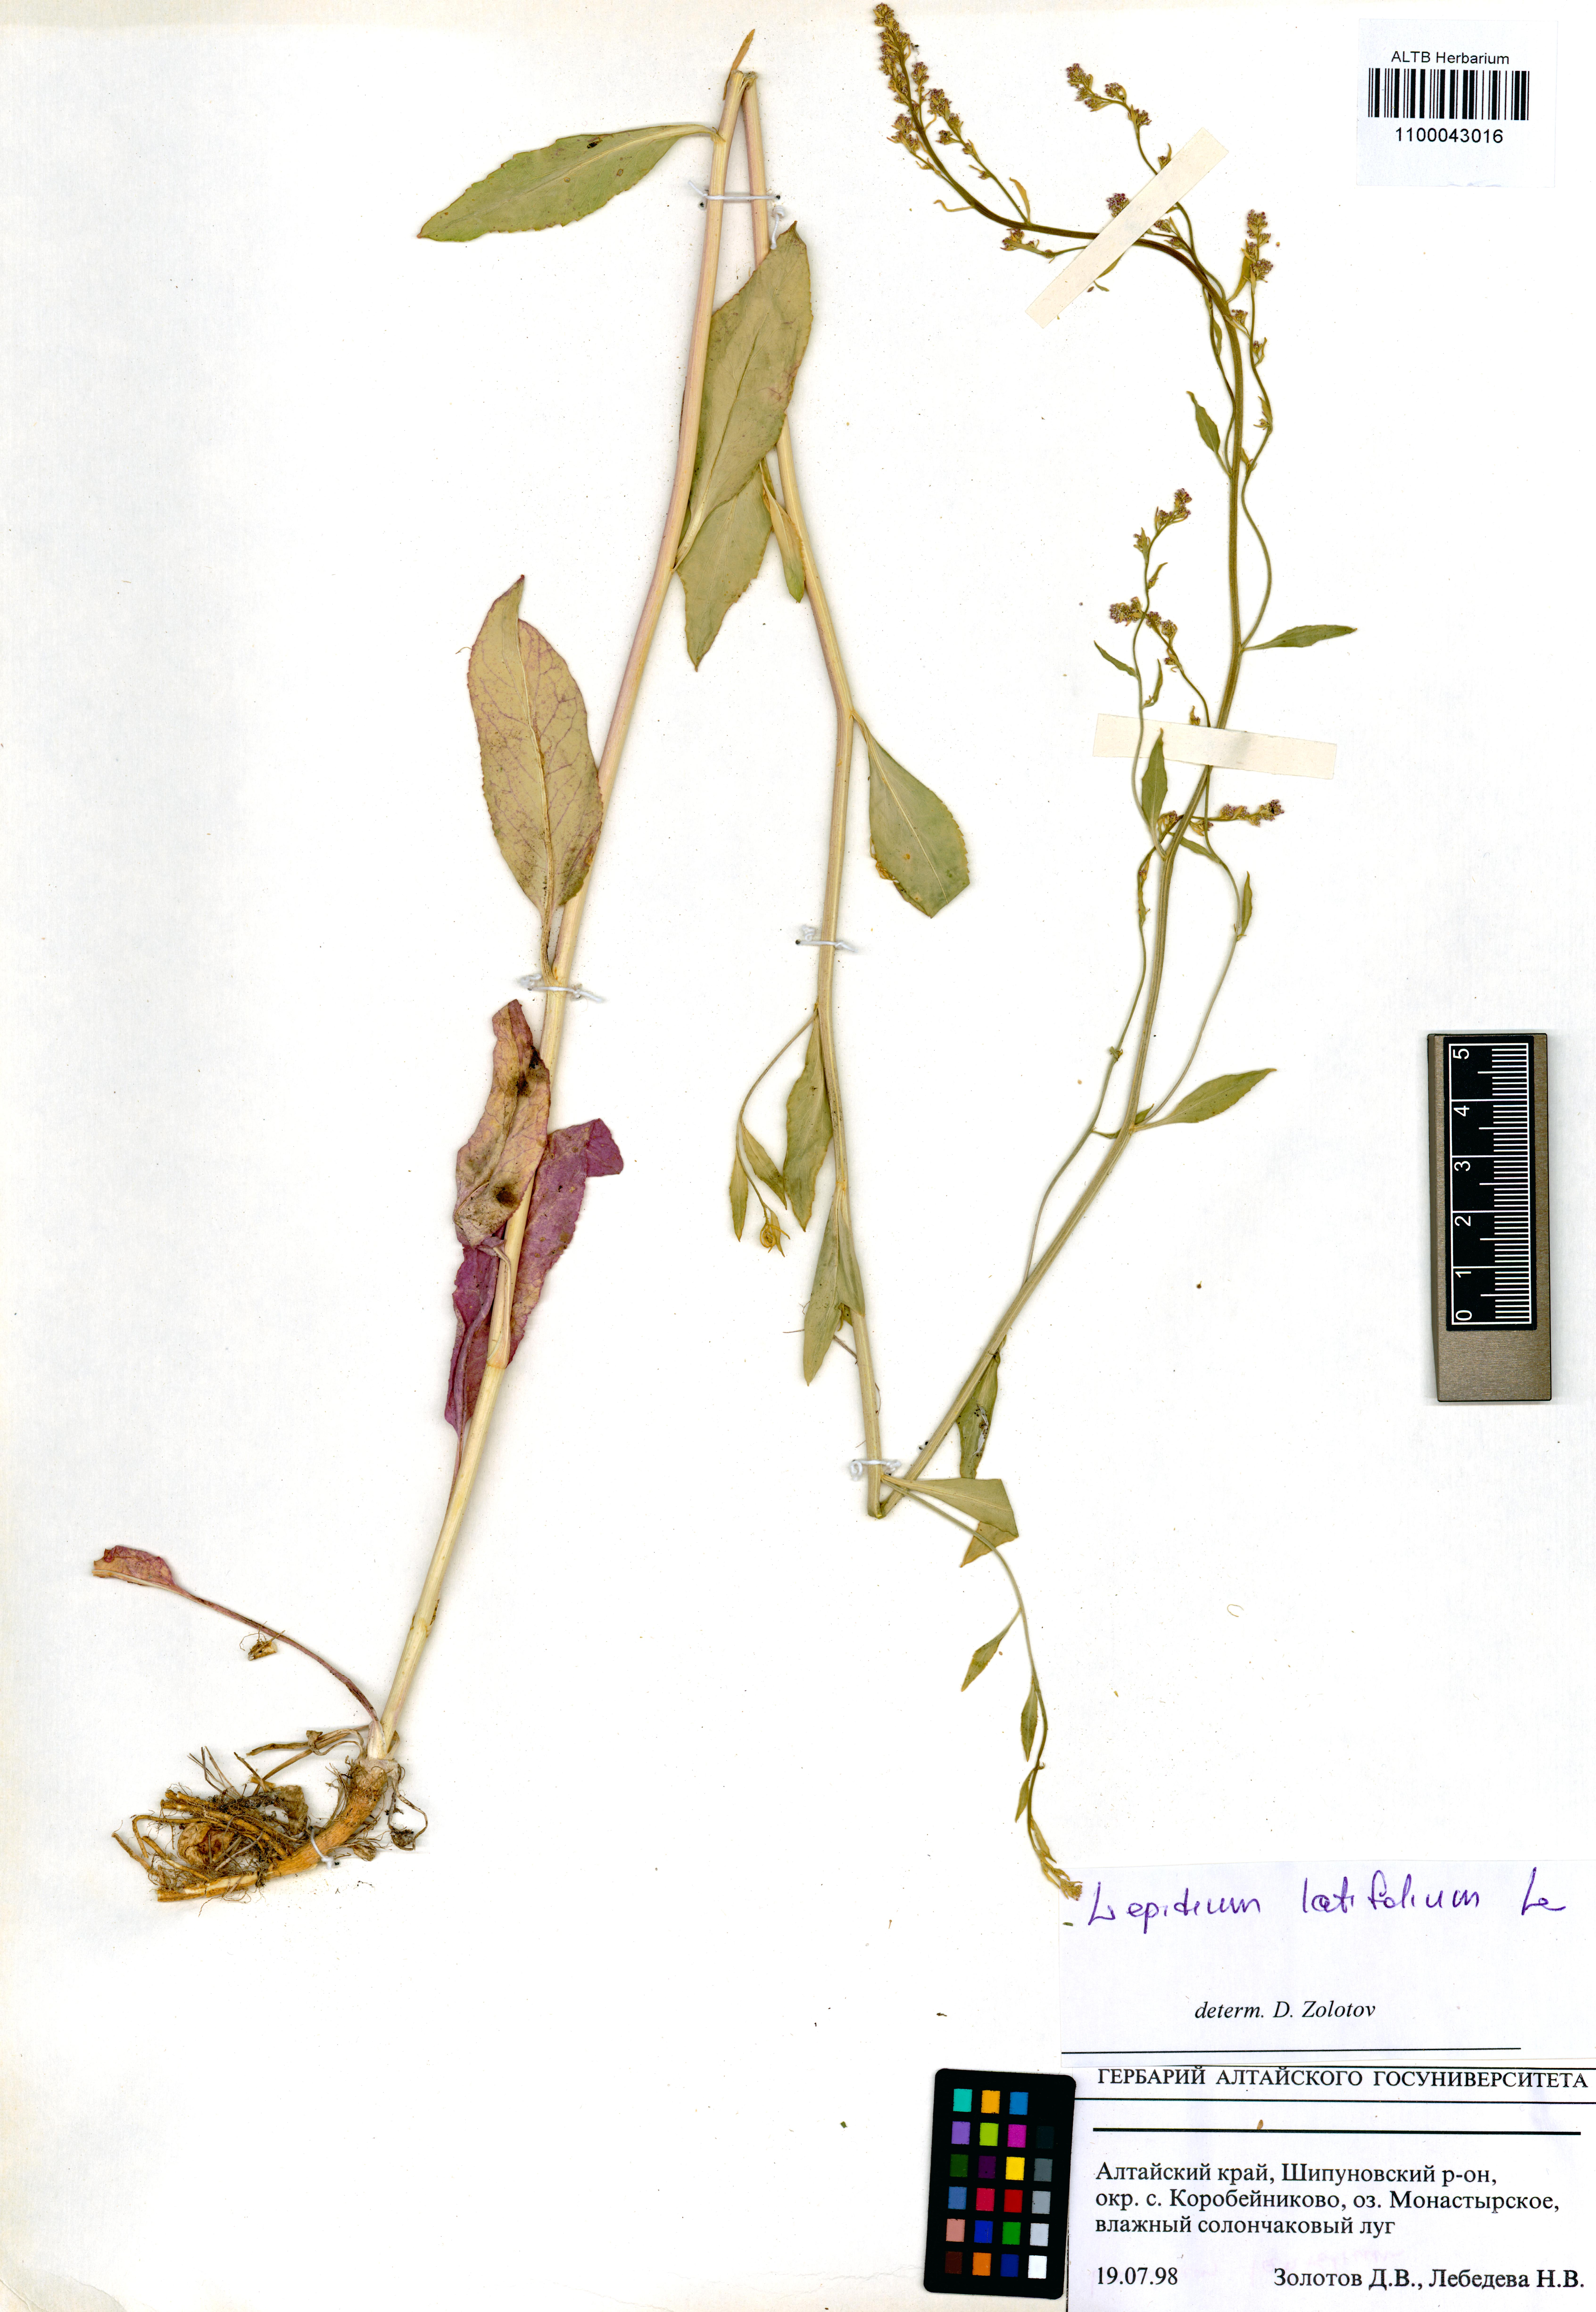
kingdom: Plantae
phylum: Tracheophyta
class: Magnoliopsida
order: Brassicales
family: Brassicaceae
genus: Lepidium
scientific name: Lepidium latifolium
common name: Dittander
